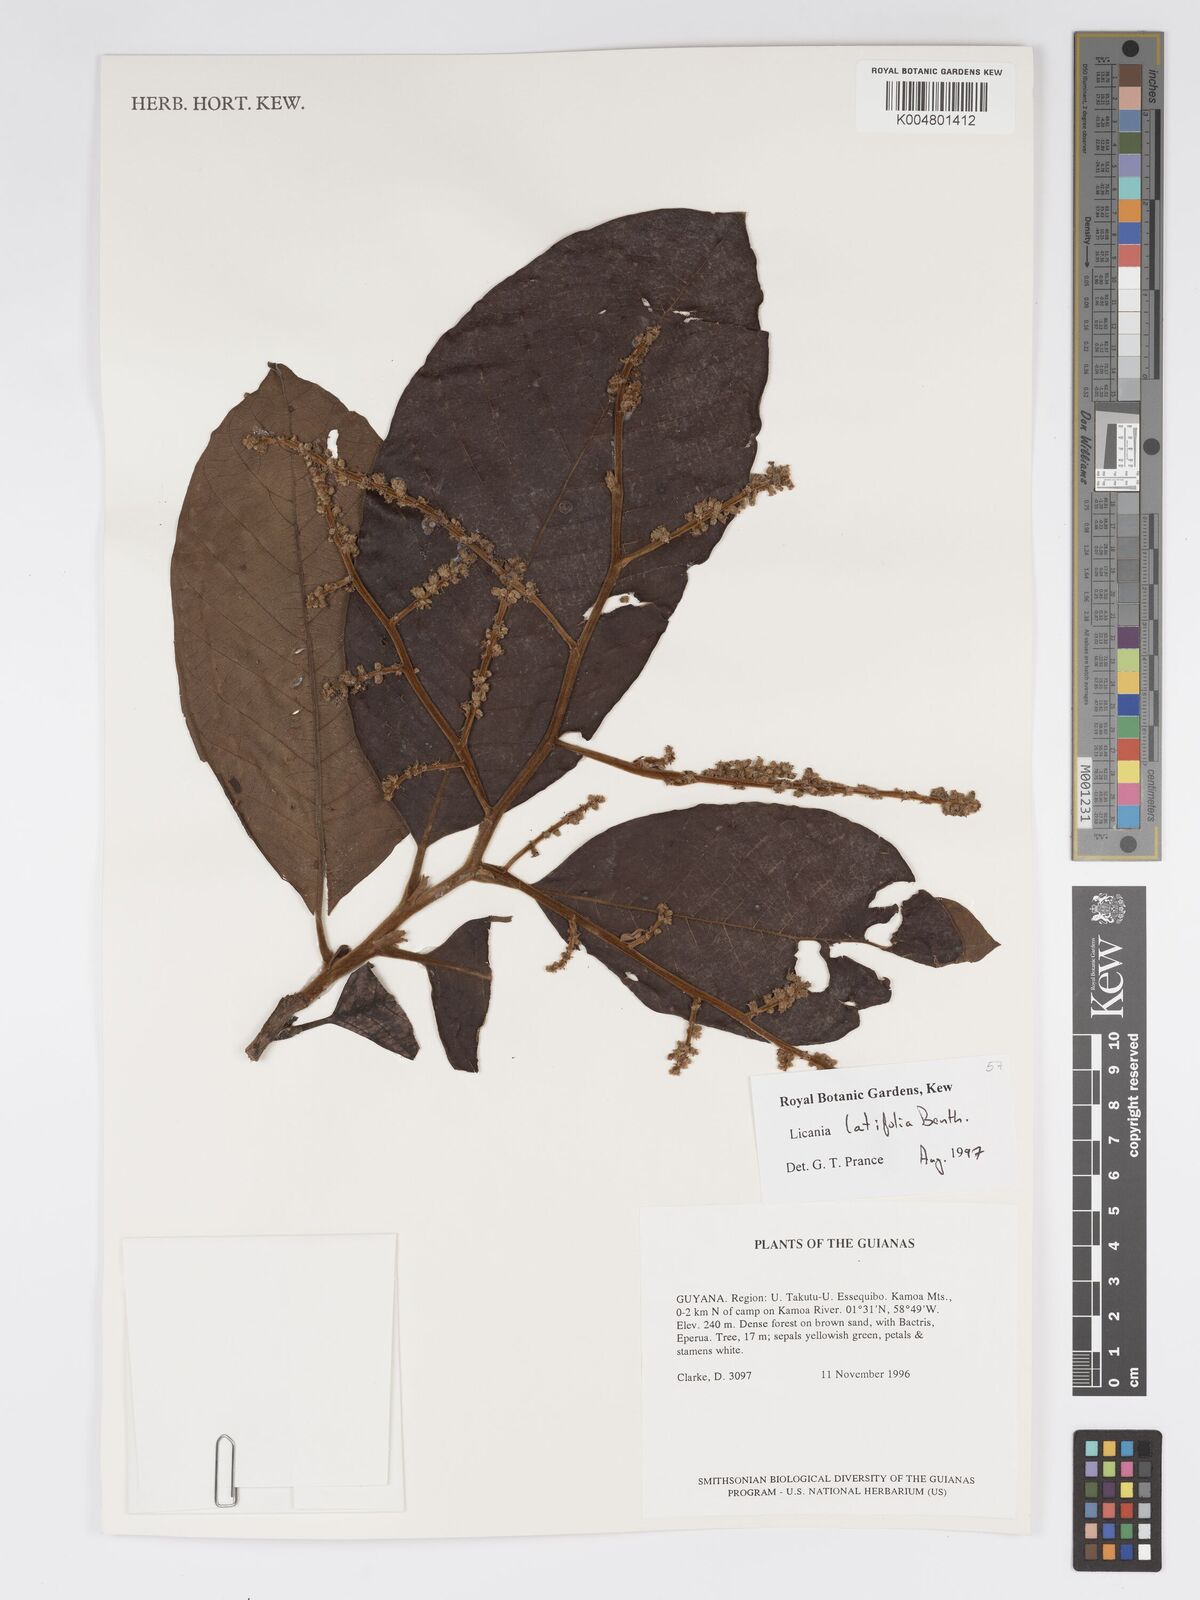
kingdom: Plantae
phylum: Tracheophyta
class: Magnoliopsida
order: Malpighiales
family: Chrysobalanaceae
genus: Hymenopus
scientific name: Hymenopus latifolius
